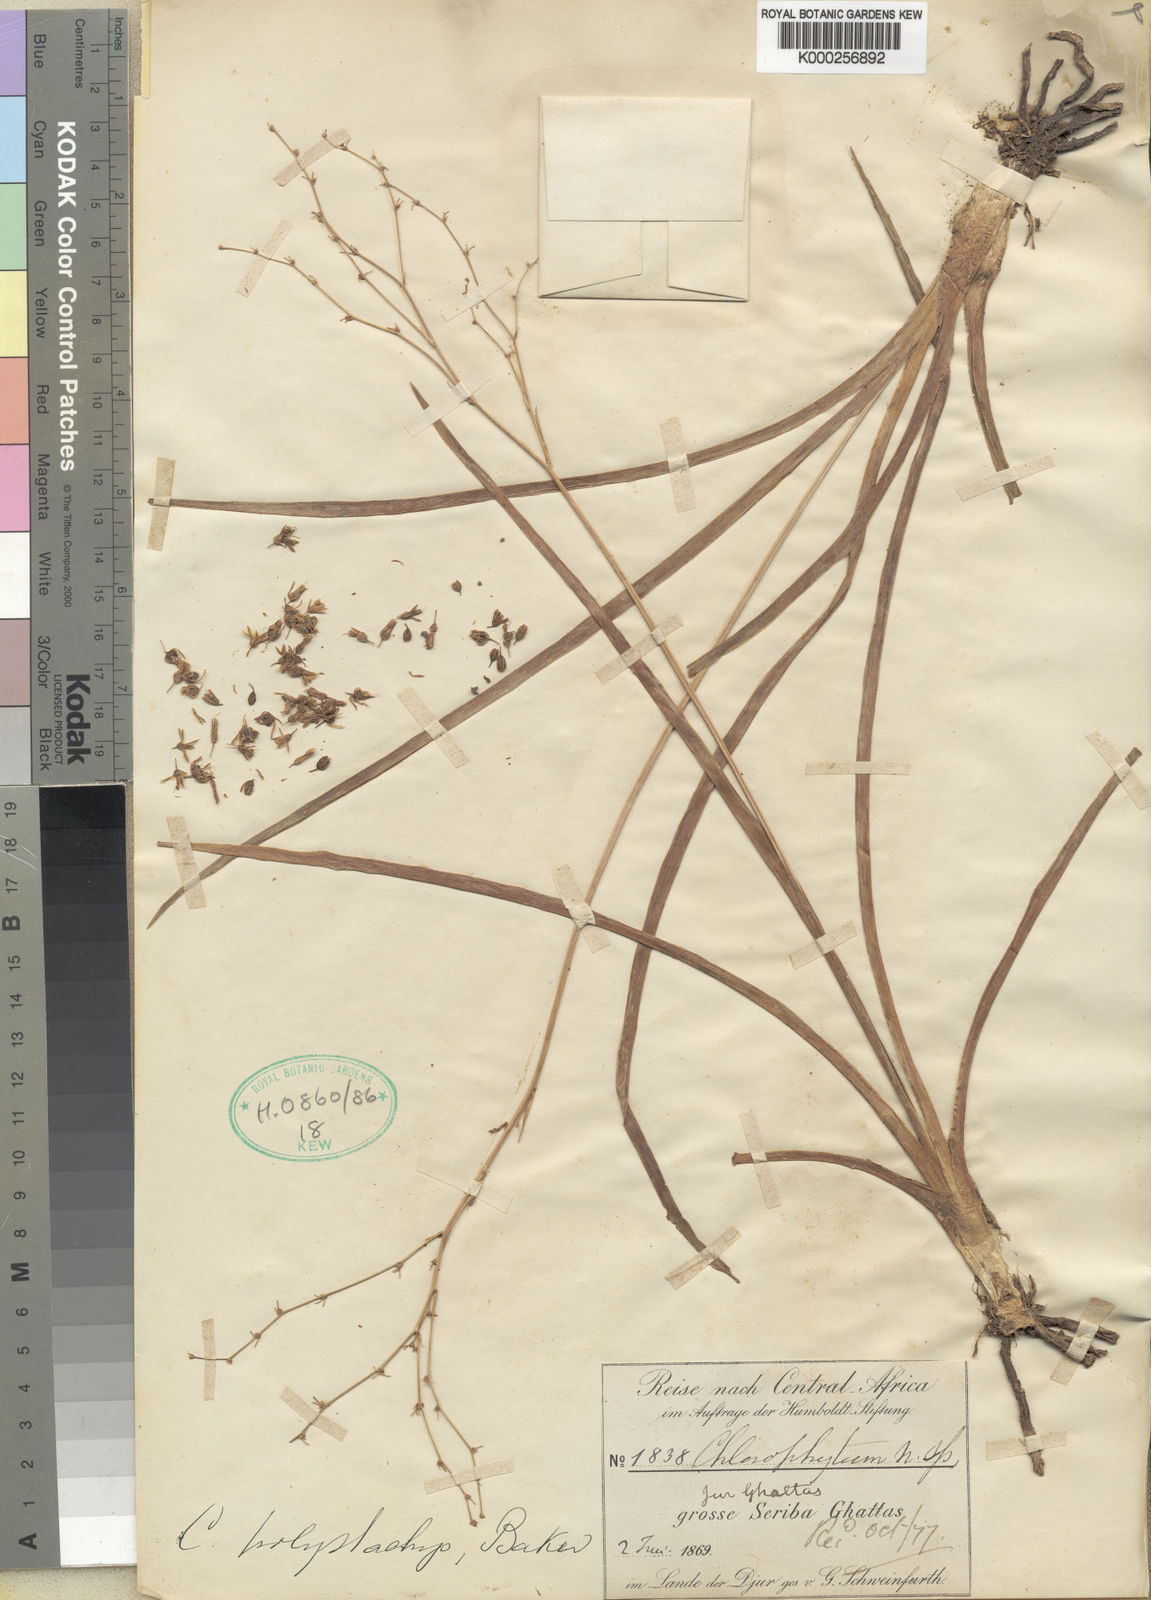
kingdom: Plantae
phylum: Tracheophyta
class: Liliopsida
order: Asparagales
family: Asparagaceae
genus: Chlorophytum
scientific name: Chlorophytum polystachys
